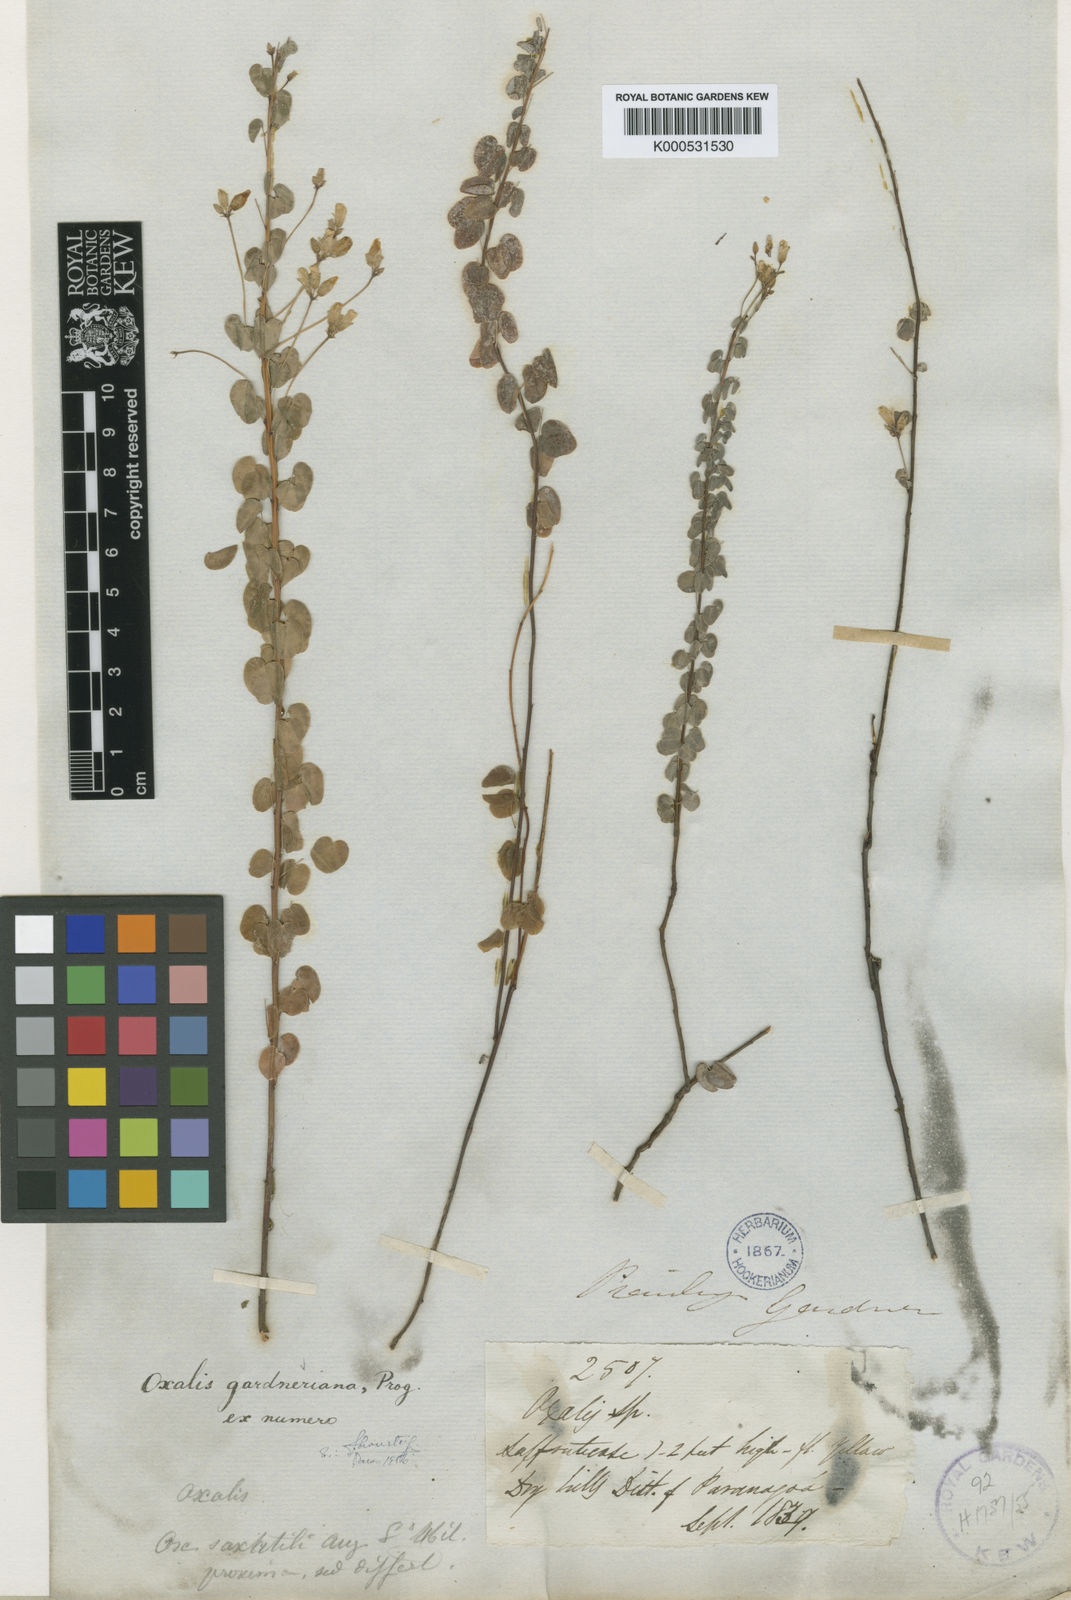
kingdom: Plantae
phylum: Tracheophyta
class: Magnoliopsida
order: Oxalidales
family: Oxalidaceae
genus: Oxalis
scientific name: Oxalis gardneriana
